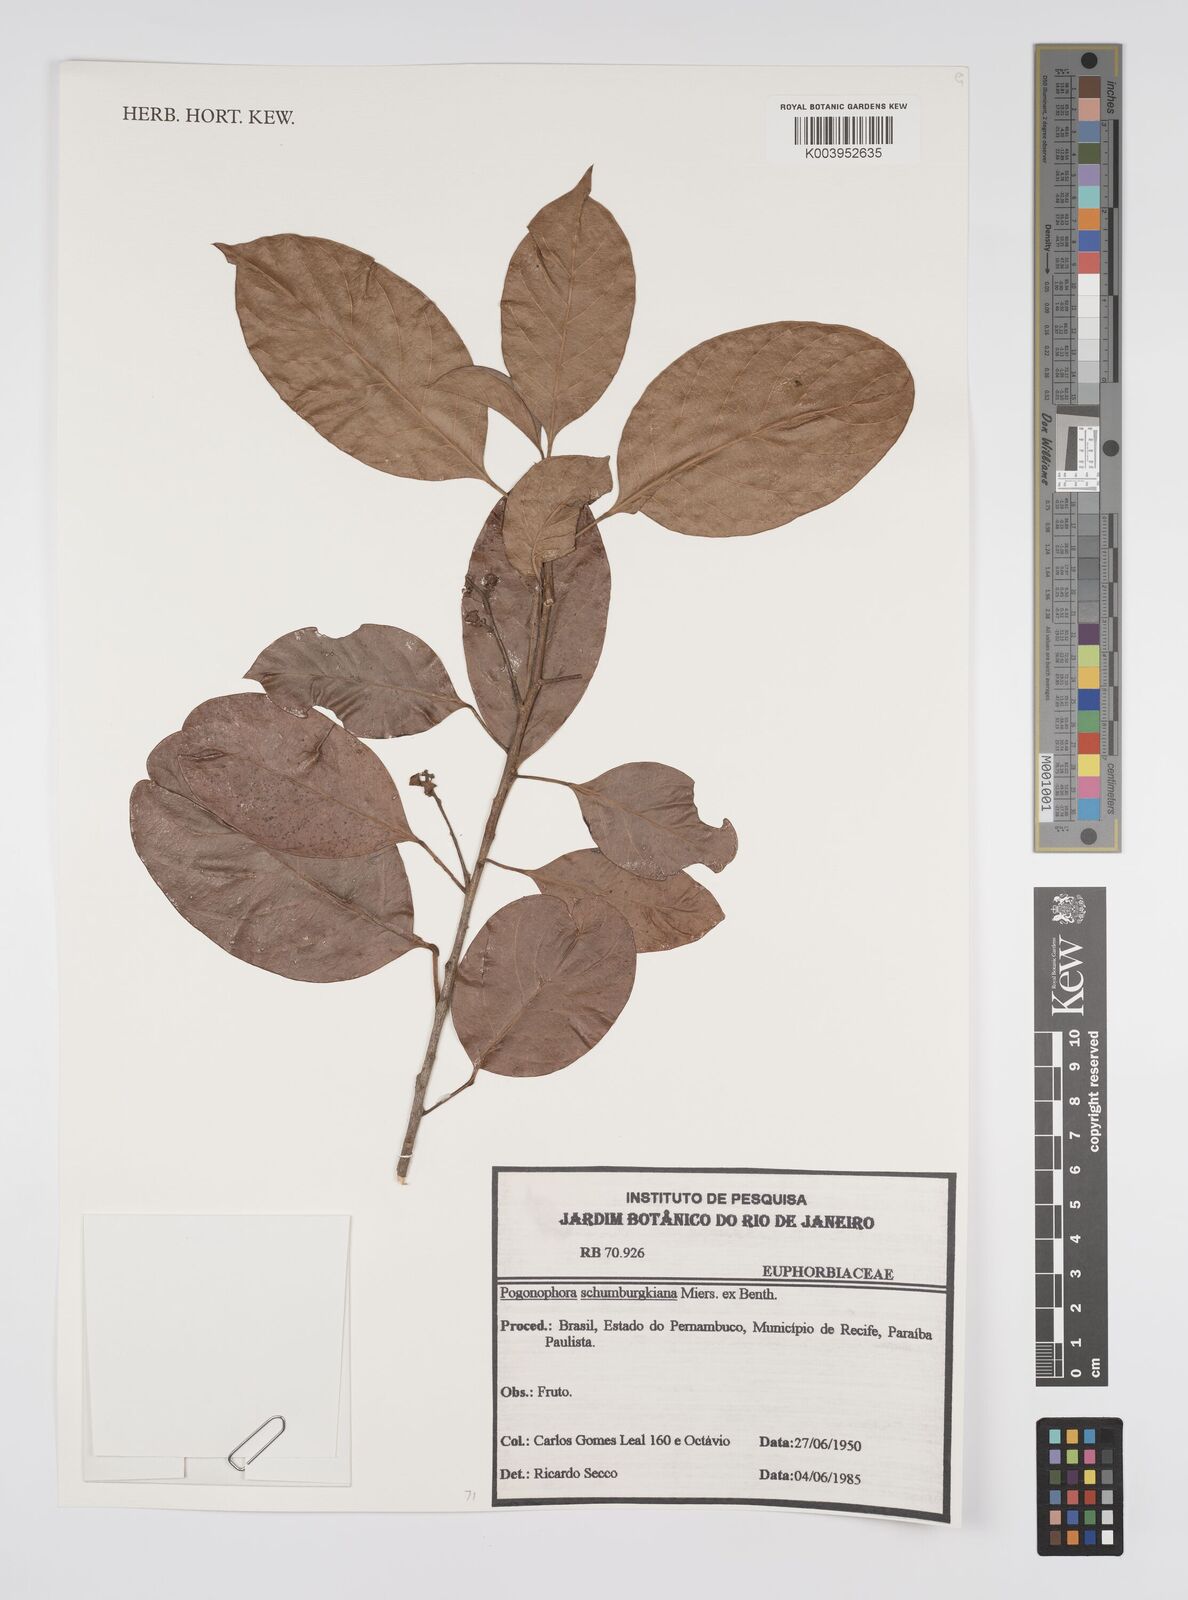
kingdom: Plantae
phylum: Tracheophyta
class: Magnoliopsida
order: Malpighiales
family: Peraceae
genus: Pogonophora
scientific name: Pogonophora schomburgkiana
